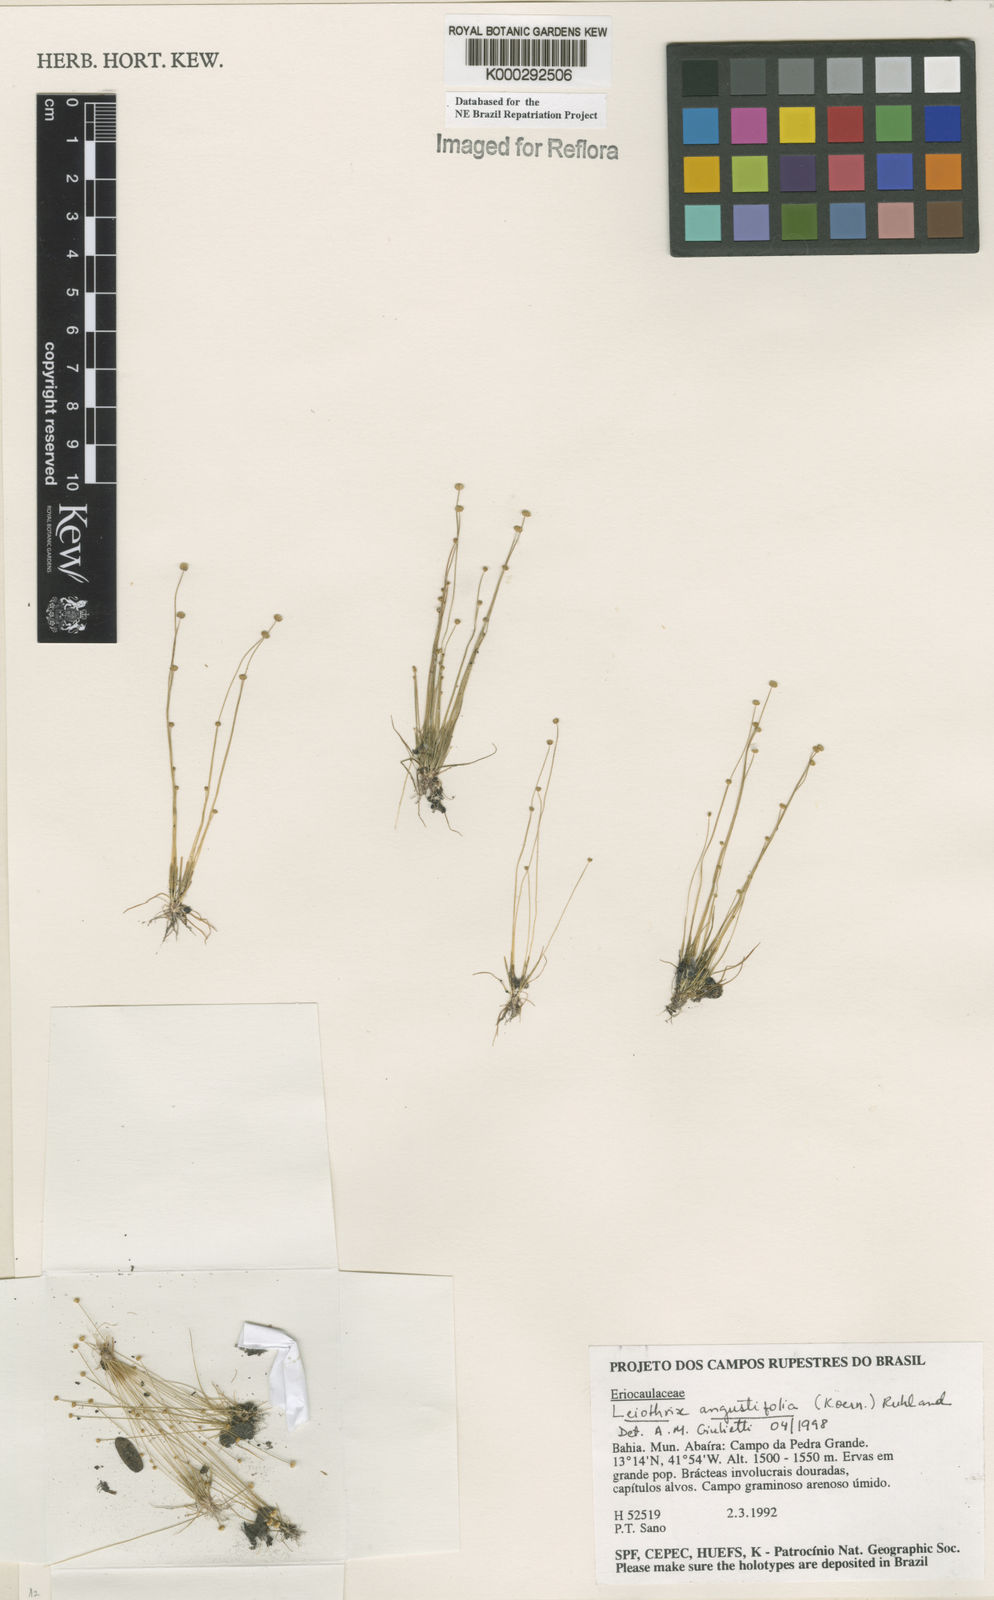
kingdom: Plantae
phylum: Tracheophyta
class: Liliopsida
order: Poales
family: Eriocaulaceae
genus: Leiothrix
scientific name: Leiothrix angustifolia
